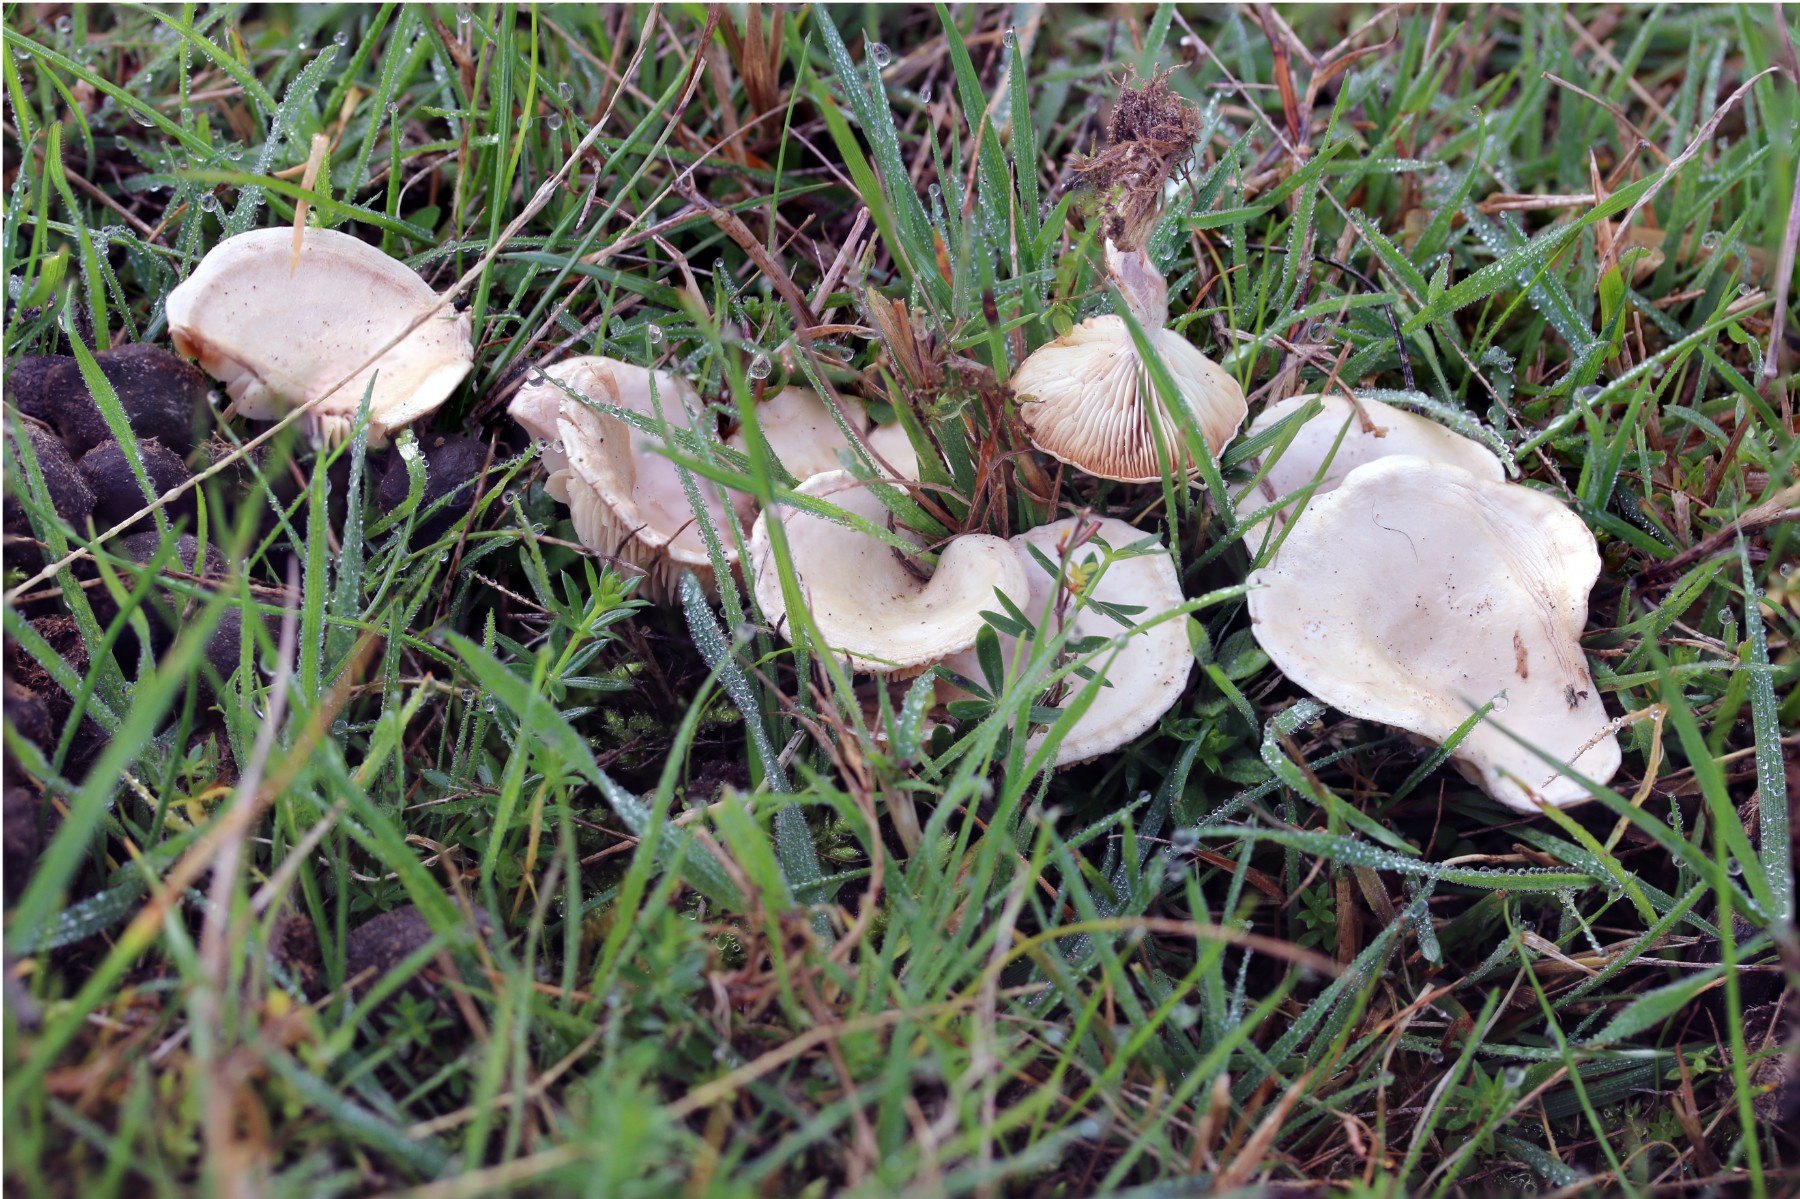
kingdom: Fungi
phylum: Basidiomycota
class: Agaricomycetes
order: Agaricales
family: Tricholomataceae
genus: Clitocybe
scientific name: Clitocybe rivulosa
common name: eng-tragthat
